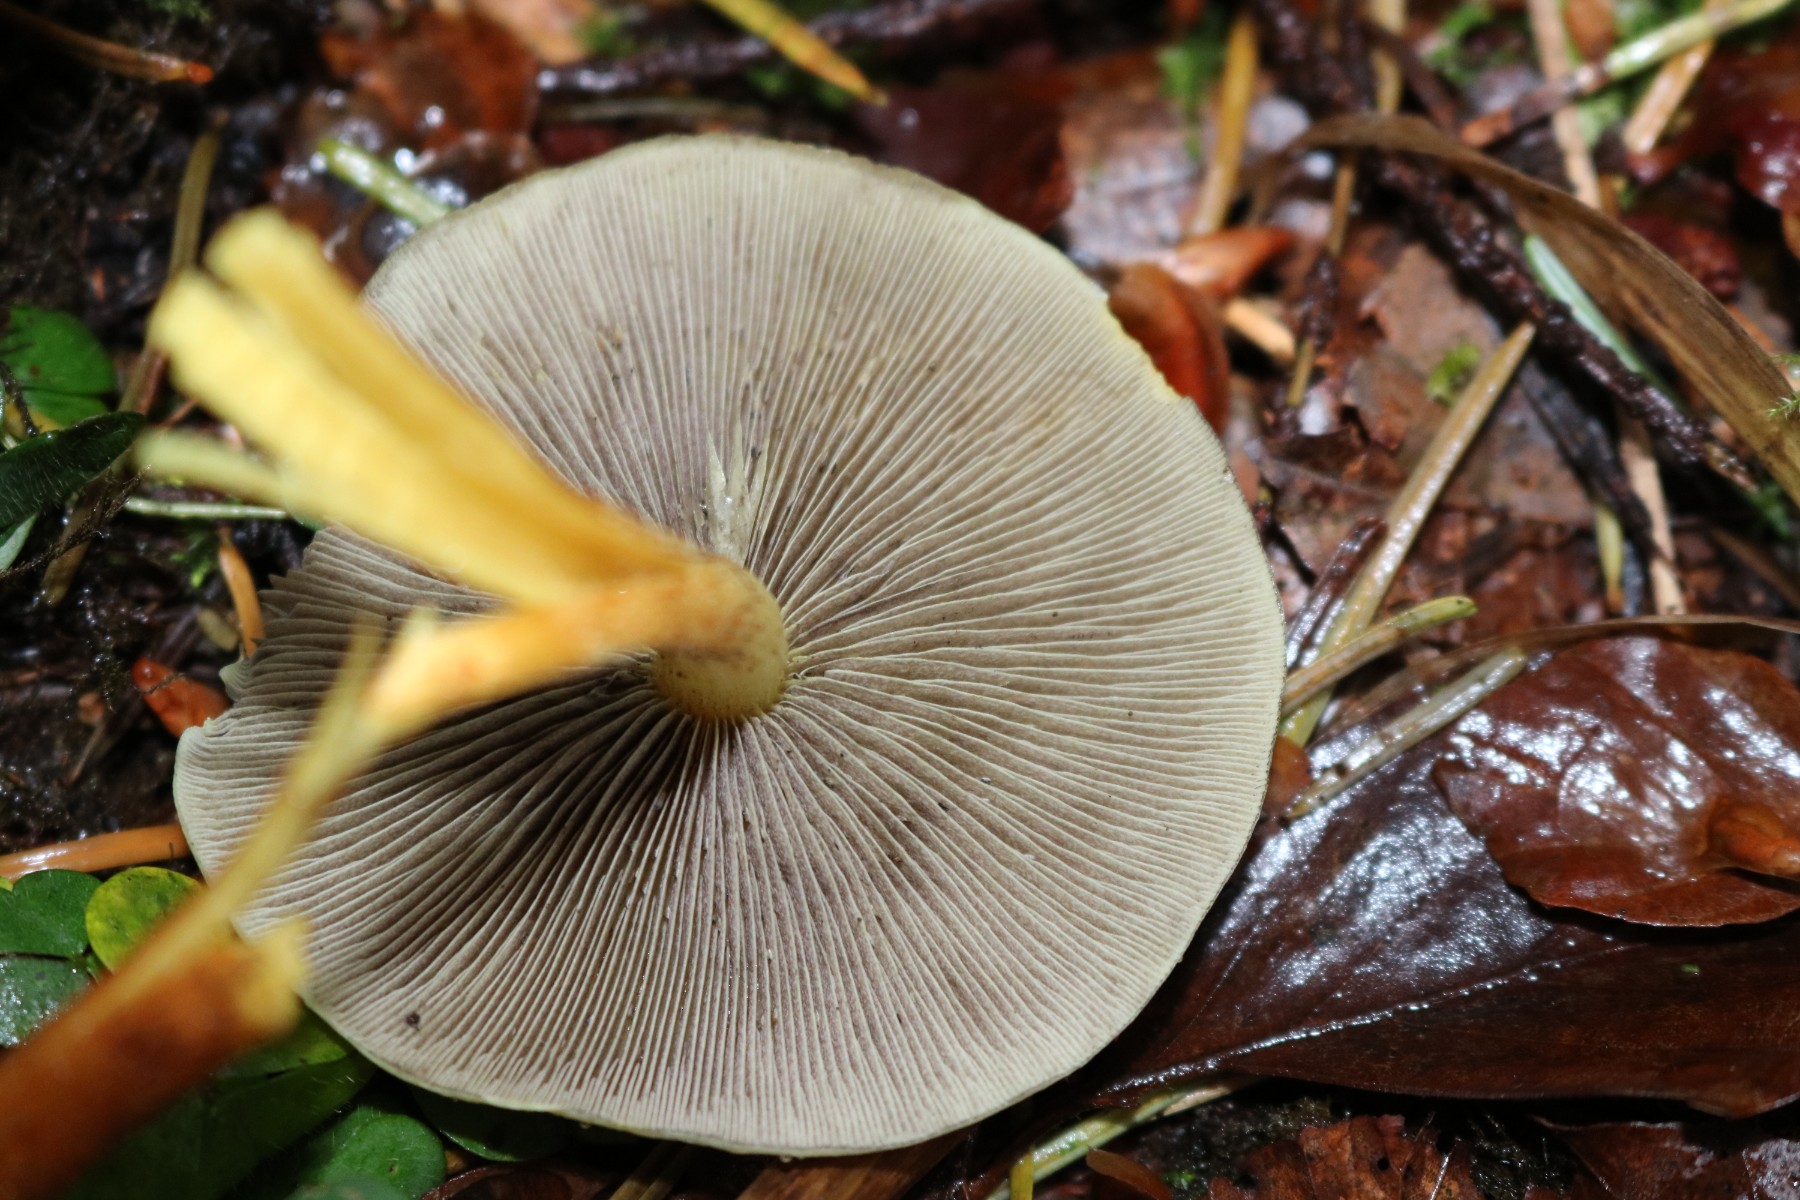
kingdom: Fungi
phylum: Basidiomycota
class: Agaricomycetes
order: Agaricales
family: Strophariaceae
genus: Hypholoma
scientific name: Hypholoma fasciculare
